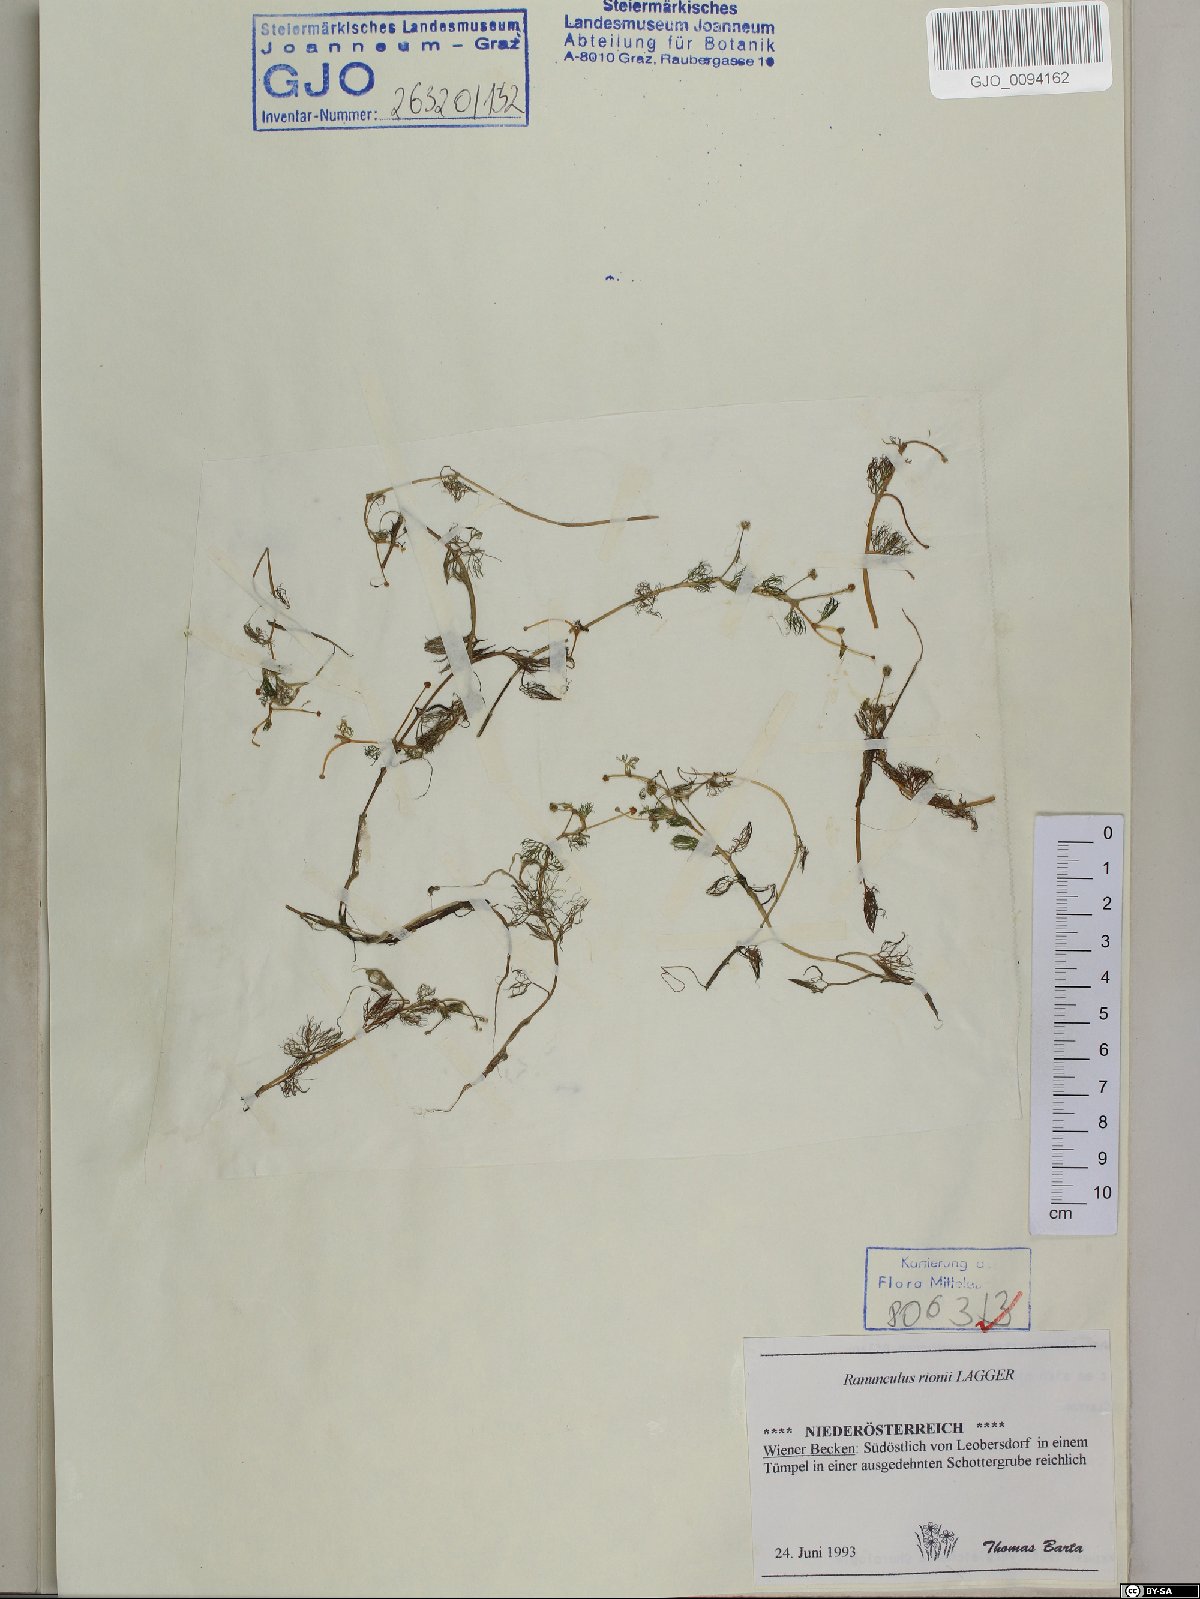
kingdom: Plantae
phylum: Tracheophyta
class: Magnoliopsida
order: Ranunculales
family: Ranunculaceae
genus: Ranunculus
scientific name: Ranunculus rionii
